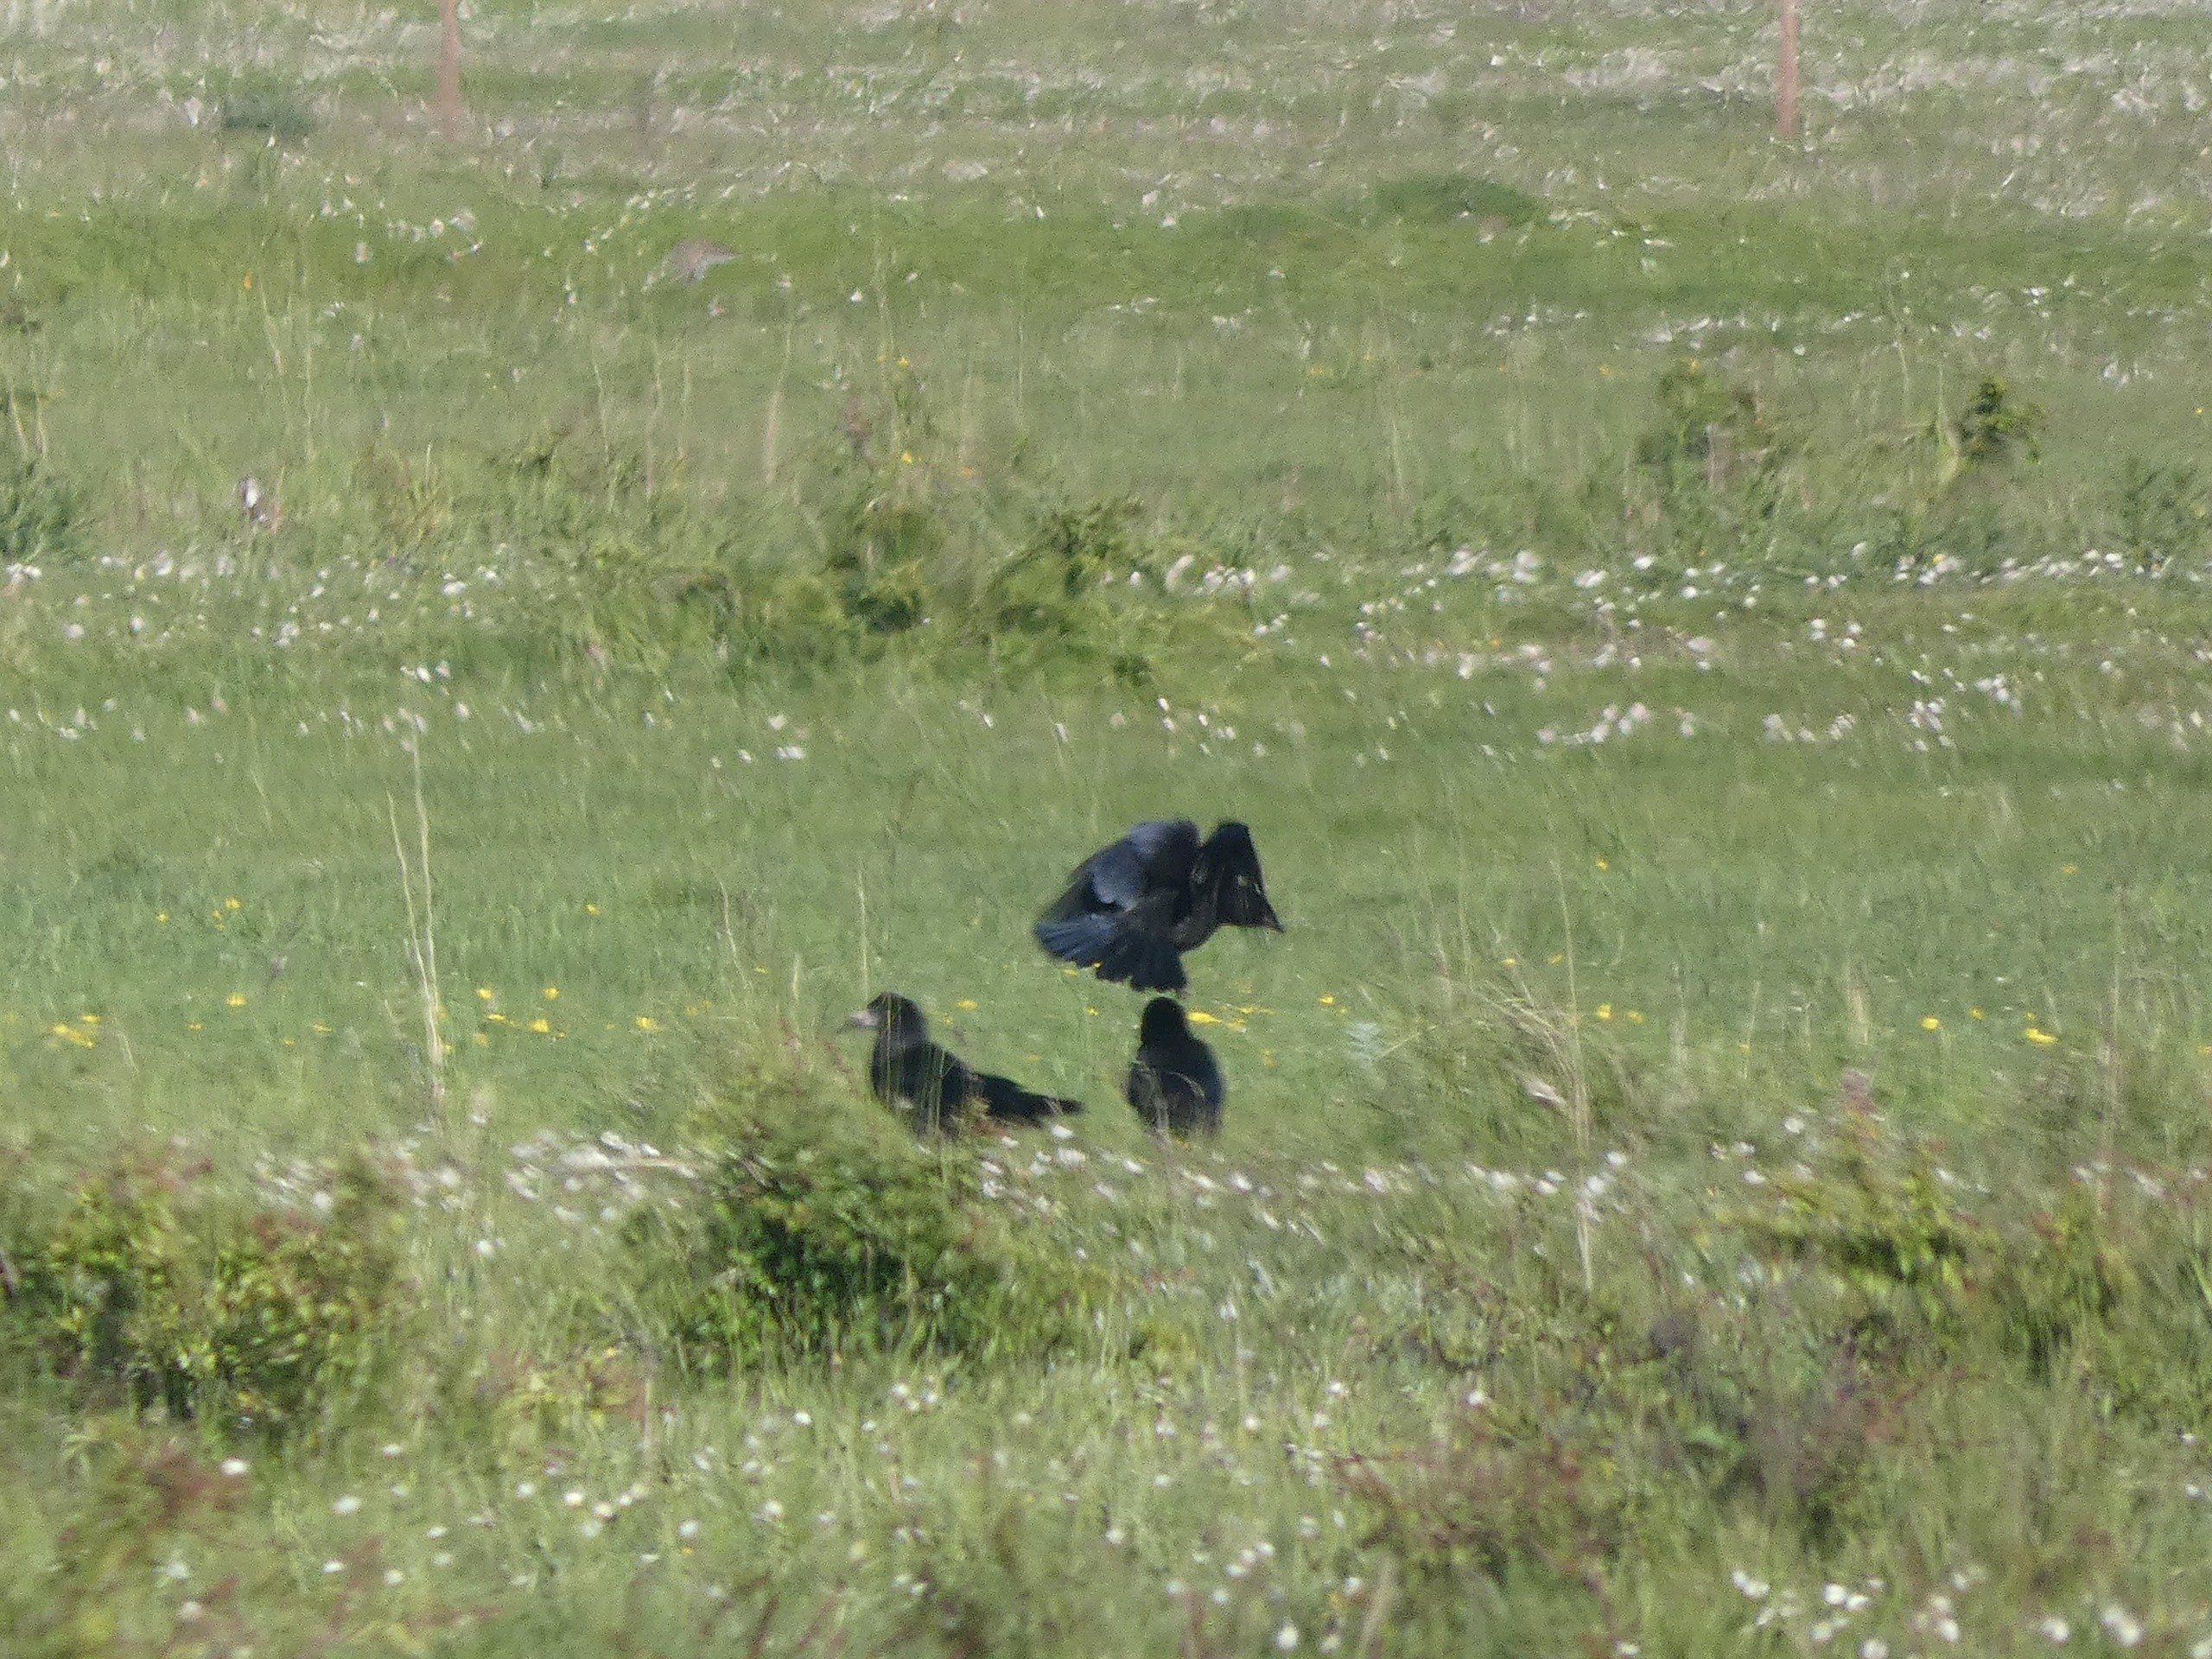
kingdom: Animalia
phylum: Chordata
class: Aves
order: Passeriformes
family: Corvidae
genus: Corvus
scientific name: Corvus frugilegus
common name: Råge
